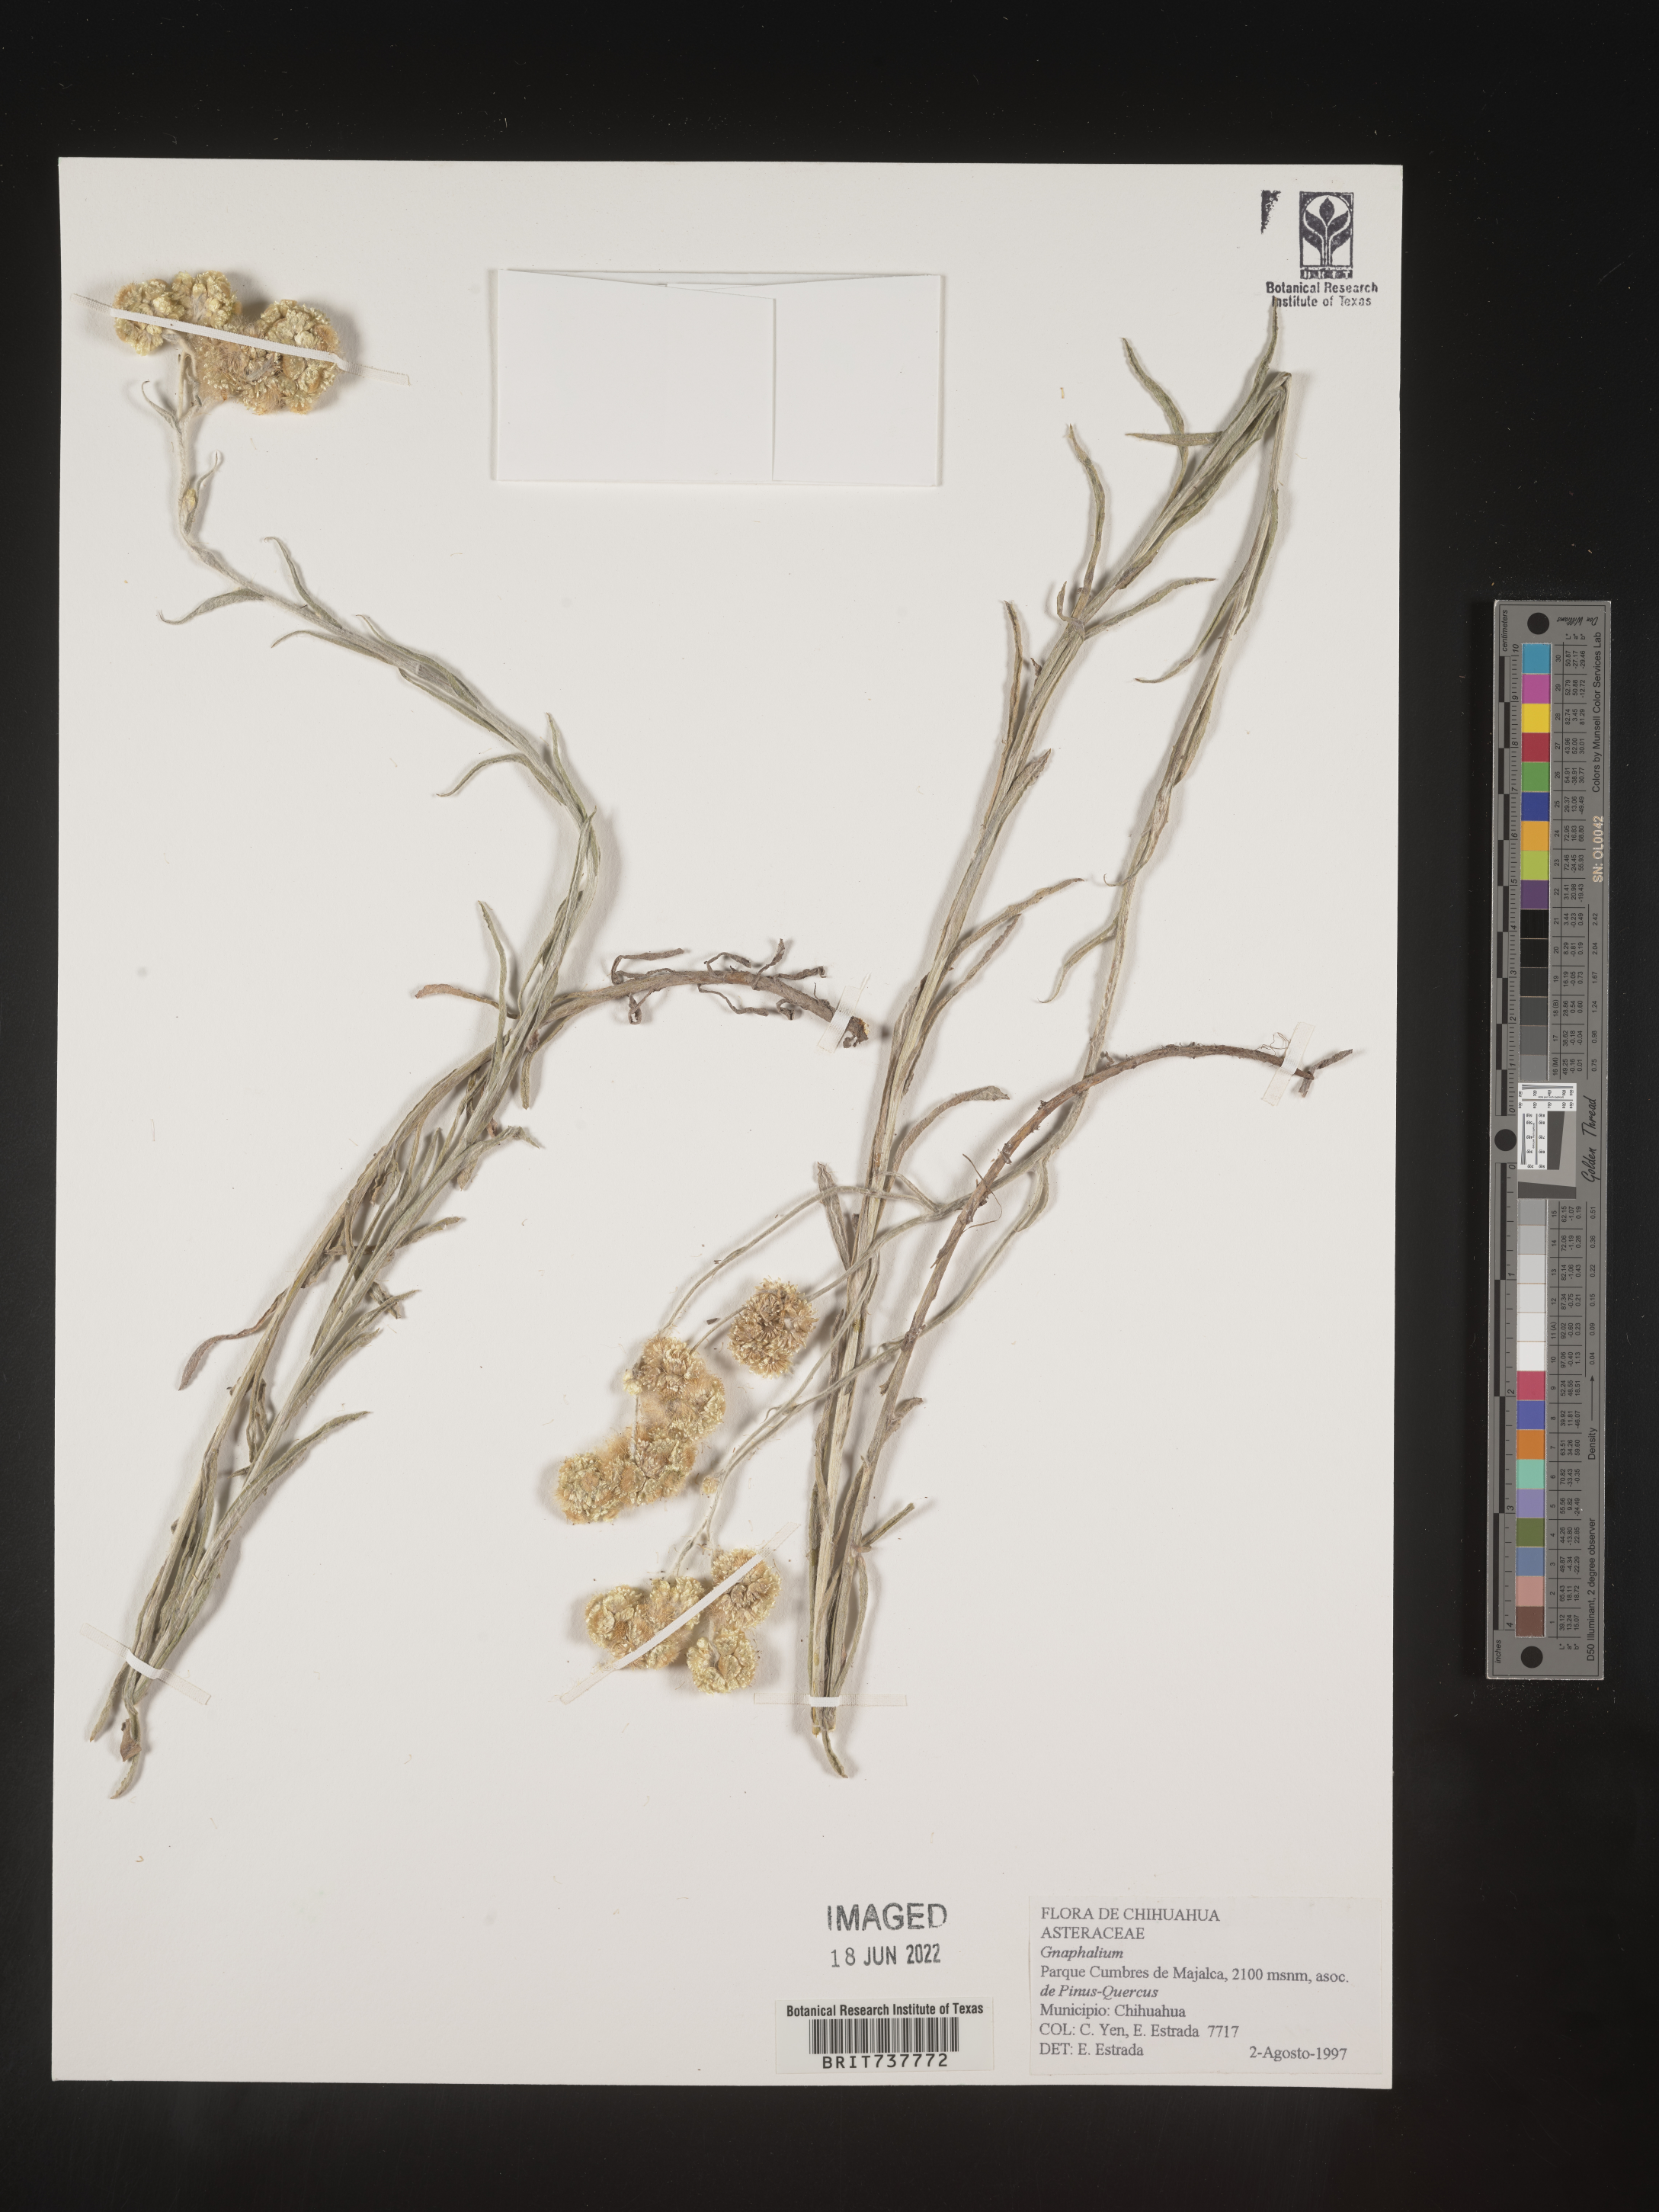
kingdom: Plantae
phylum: Tracheophyta
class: Magnoliopsida
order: Asterales
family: Asteraceae
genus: Pseudognaphalium
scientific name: Pseudognaphalium arizonicum
